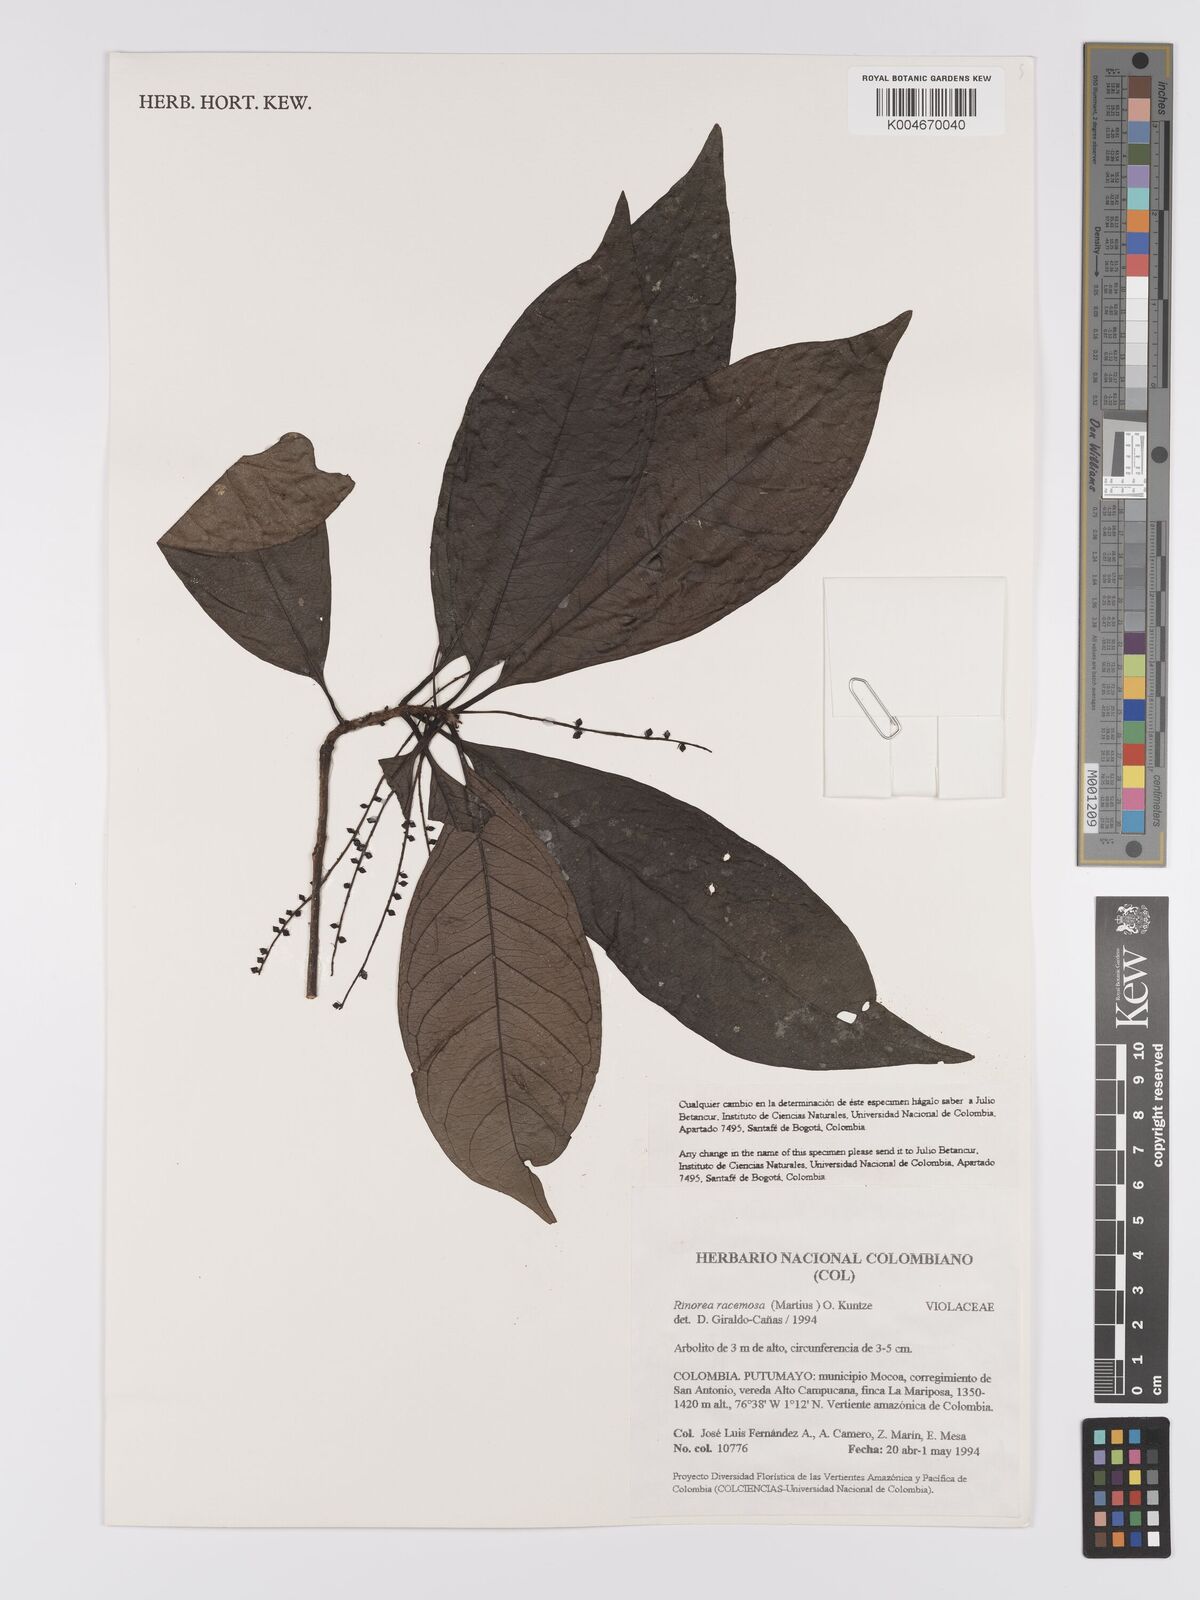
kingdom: Plantae
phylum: Tracheophyta
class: Magnoliopsida
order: Malpighiales
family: Violaceae
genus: Rinorea
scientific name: Rinorea racemosa
